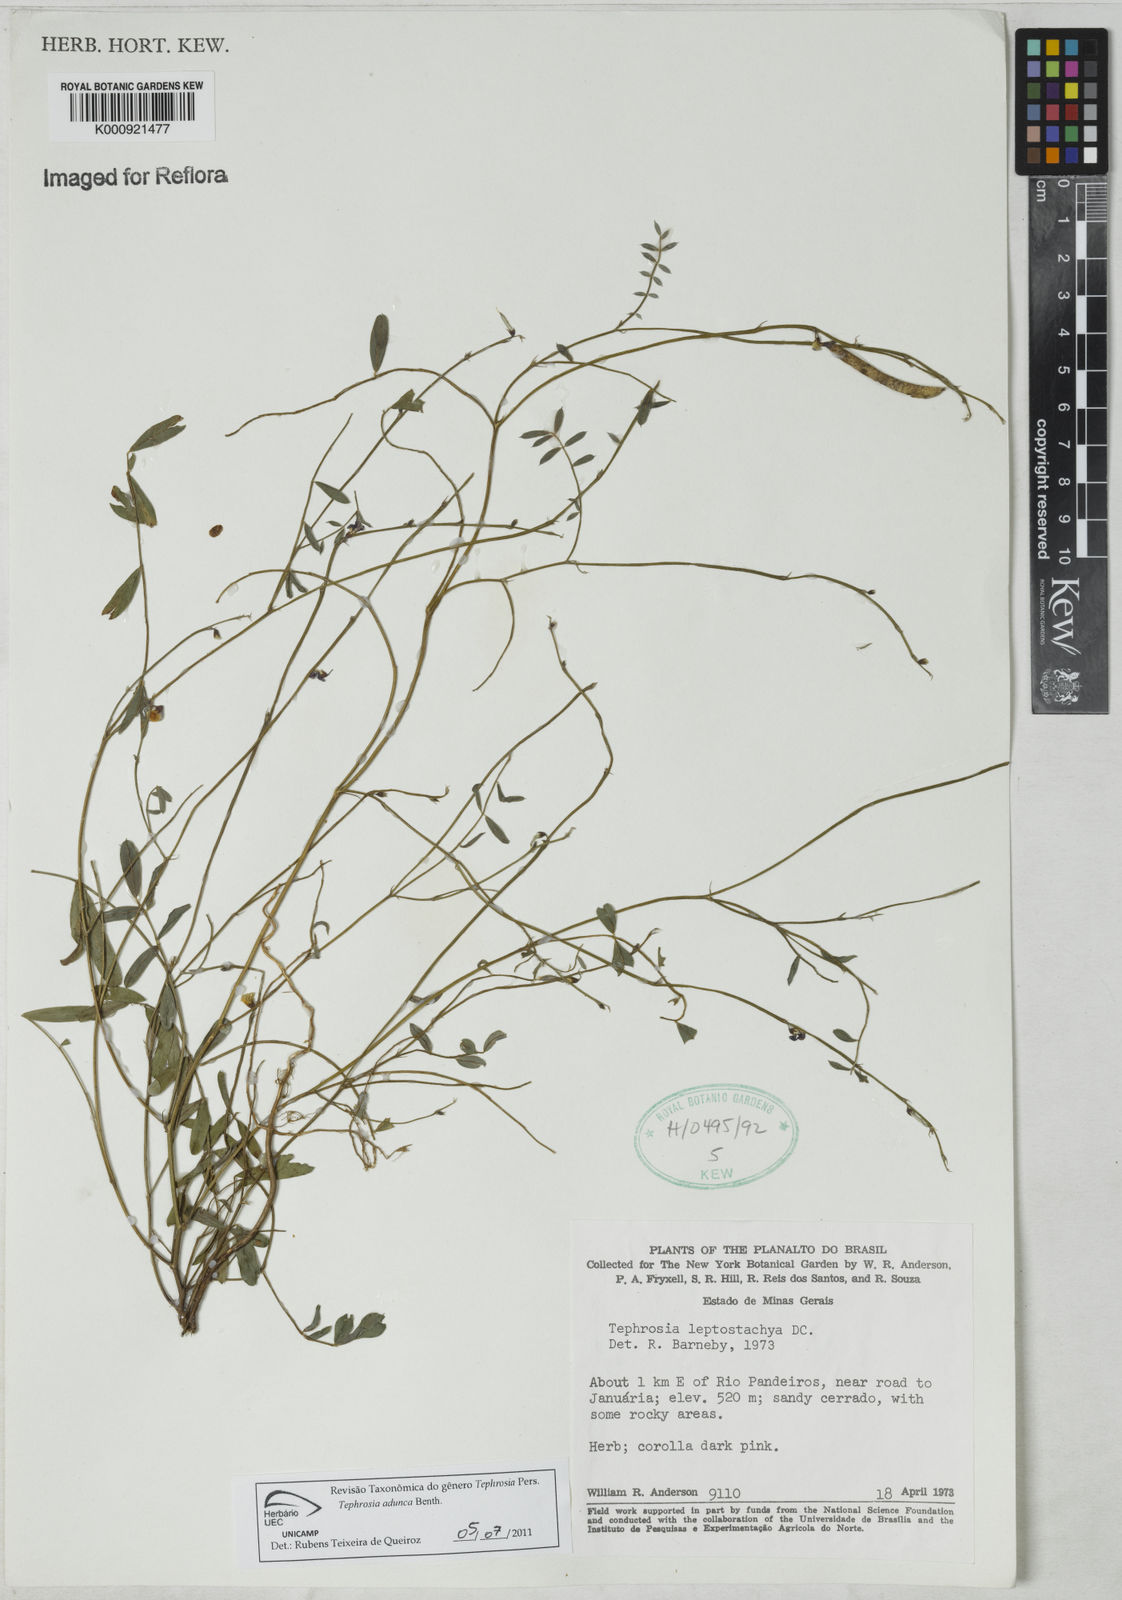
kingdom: Plantae
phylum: Tracheophyta
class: Magnoliopsida
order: Fabales
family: Fabaceae
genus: Tephrosia
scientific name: Tephrosia adunca
